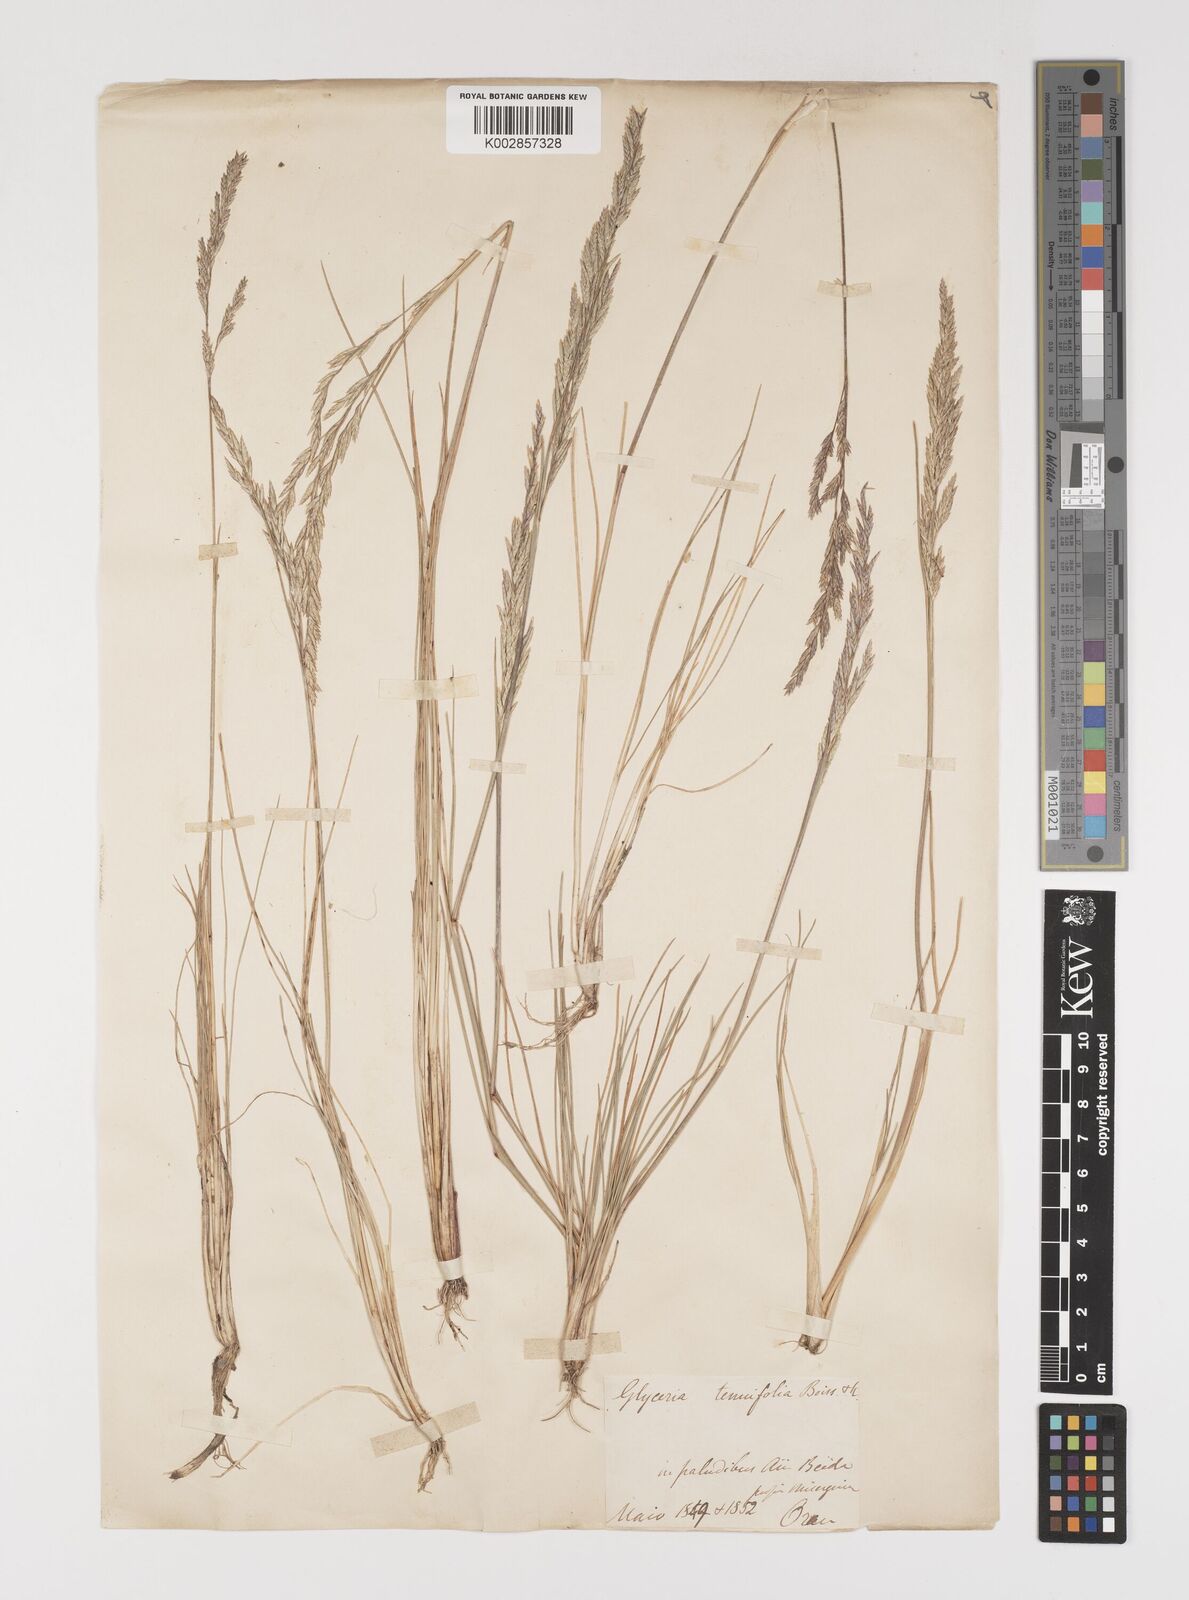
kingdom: Plantae
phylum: Tracheophyta
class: Liliopsida
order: Poales
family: Poaceae
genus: Puccinellia
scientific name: Puccinellia festuciformis
